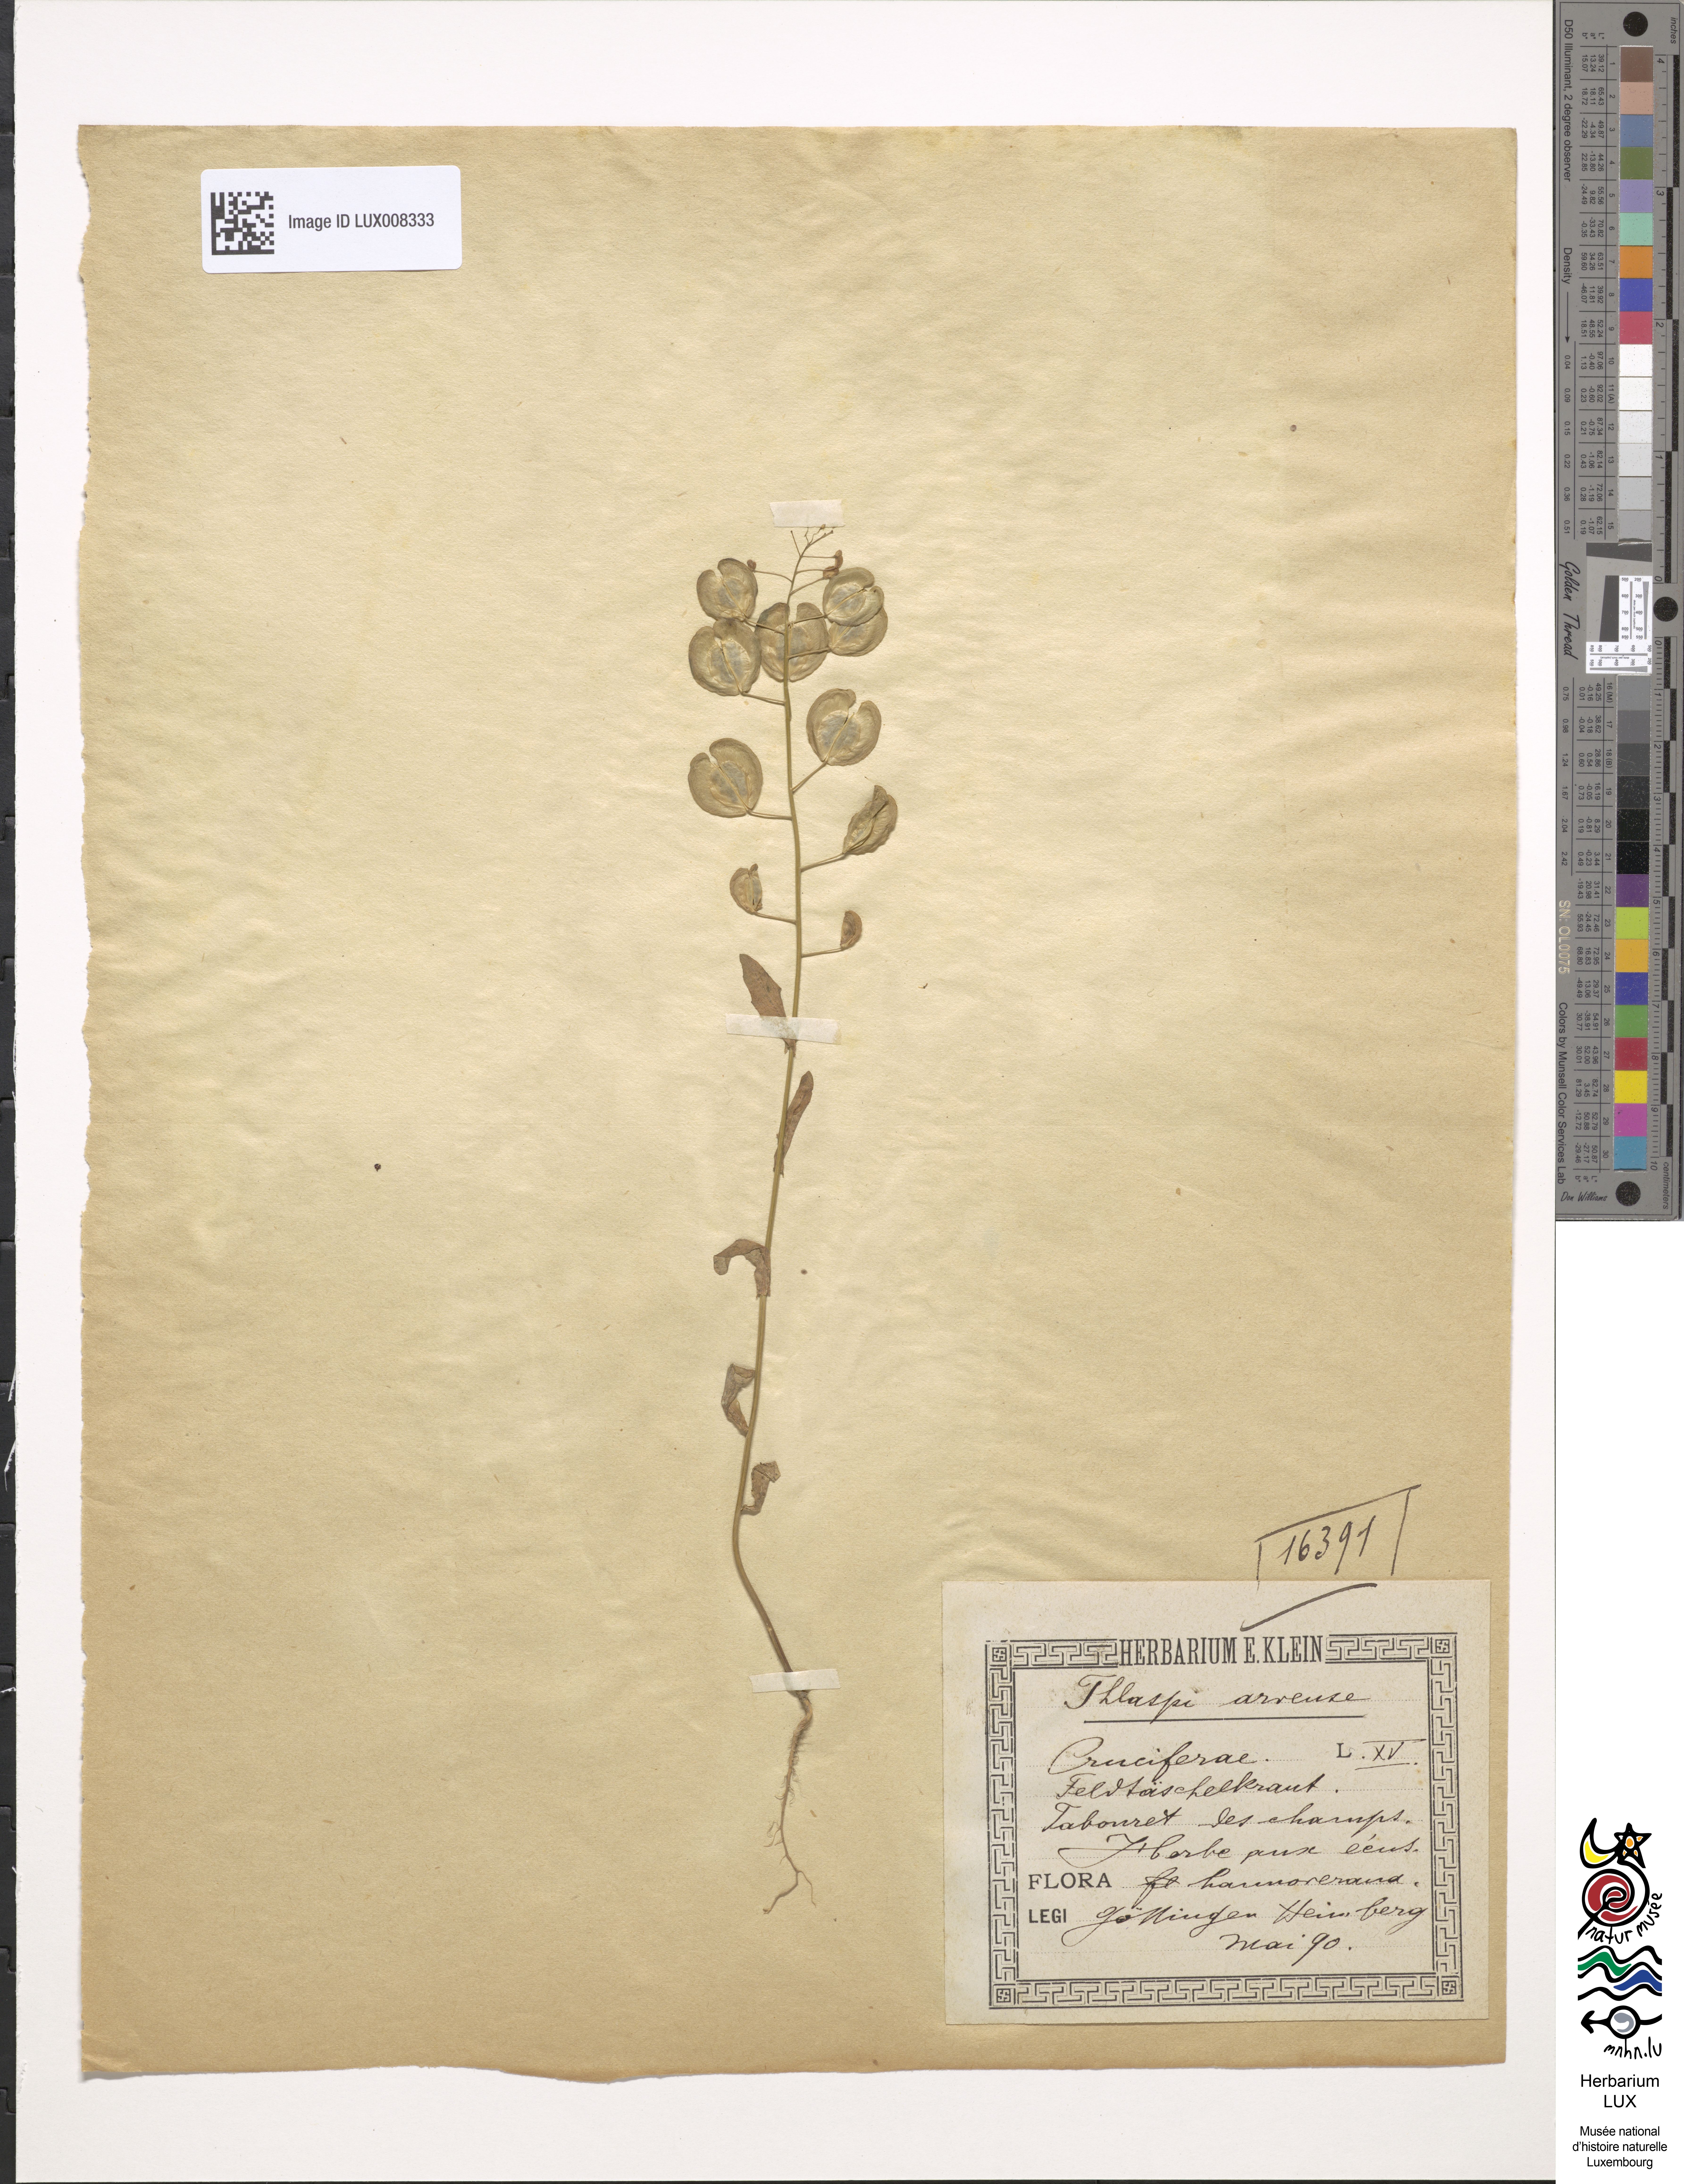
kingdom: Plantae
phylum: Tracheophyta
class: Magnoliopsida
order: Brassicales
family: Brassicaceae
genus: Thlaspi
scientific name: Thlaspi arvense
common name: Field pennycress
